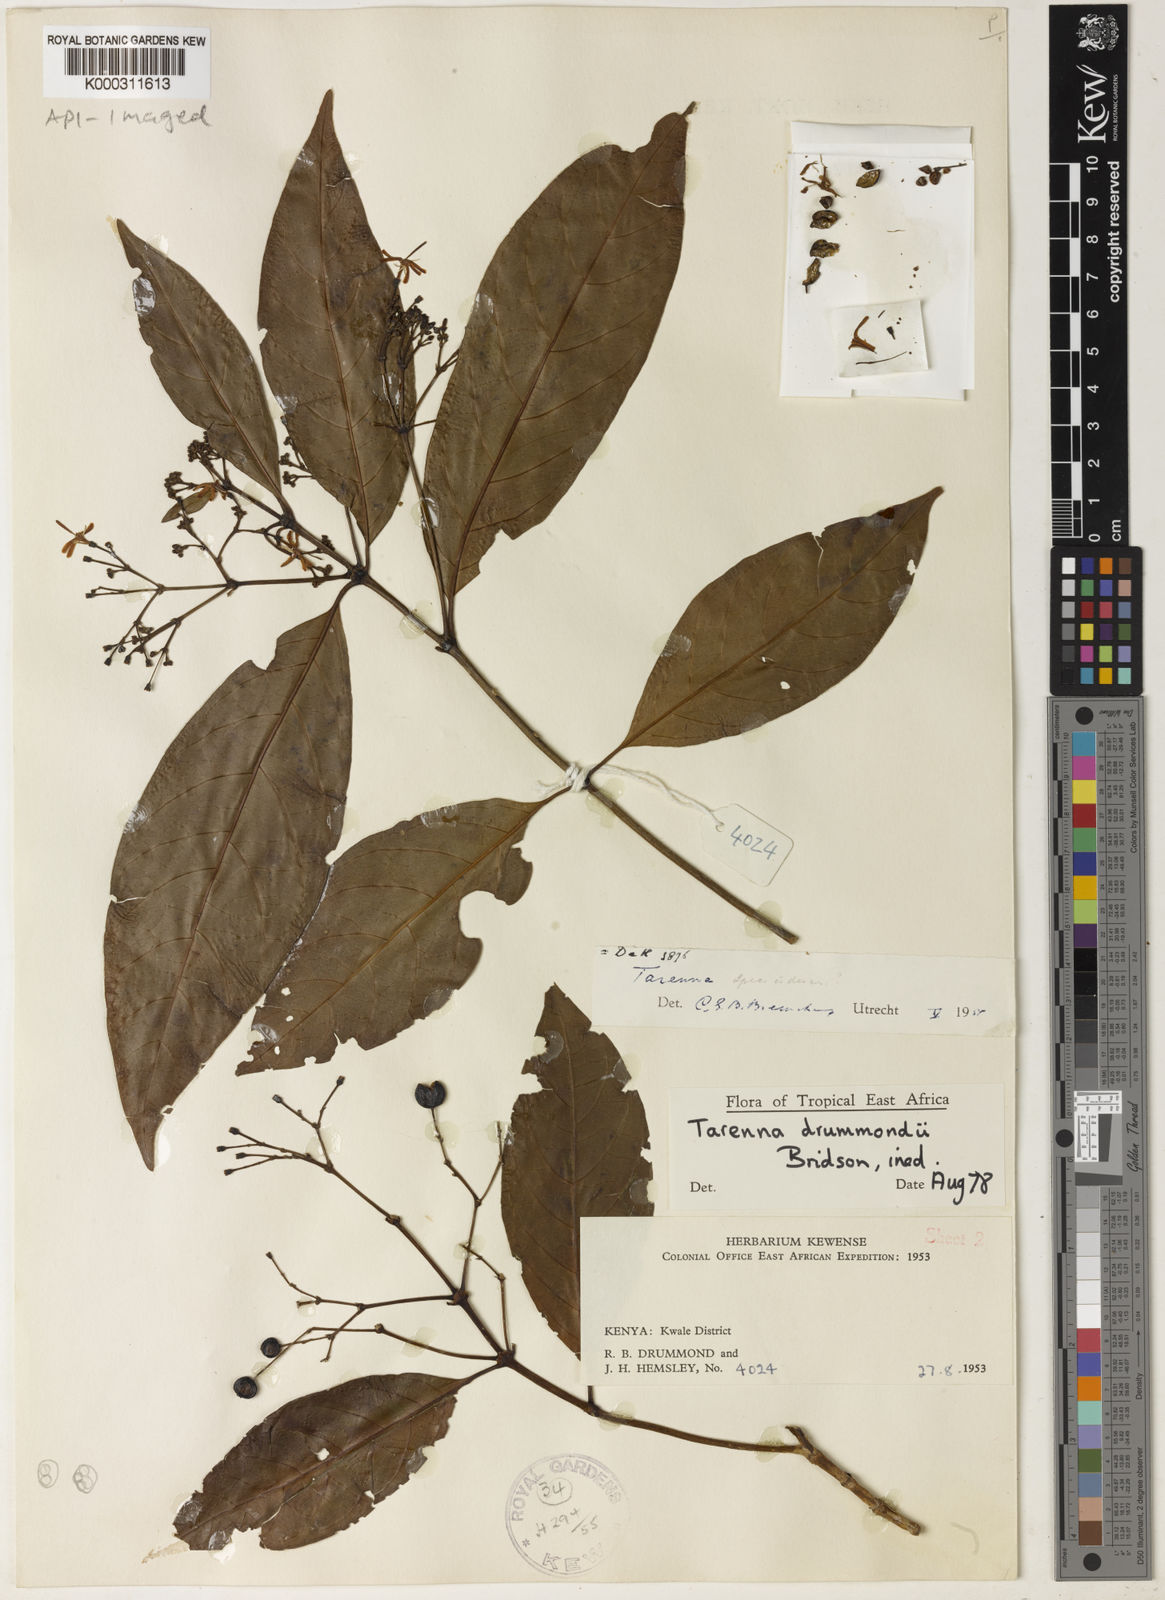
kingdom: Plantae
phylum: Tracheophyta
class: Magnoliopsida
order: Gentianales
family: Rubiaceae
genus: Tarenna
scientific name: Tarenna drummondii
